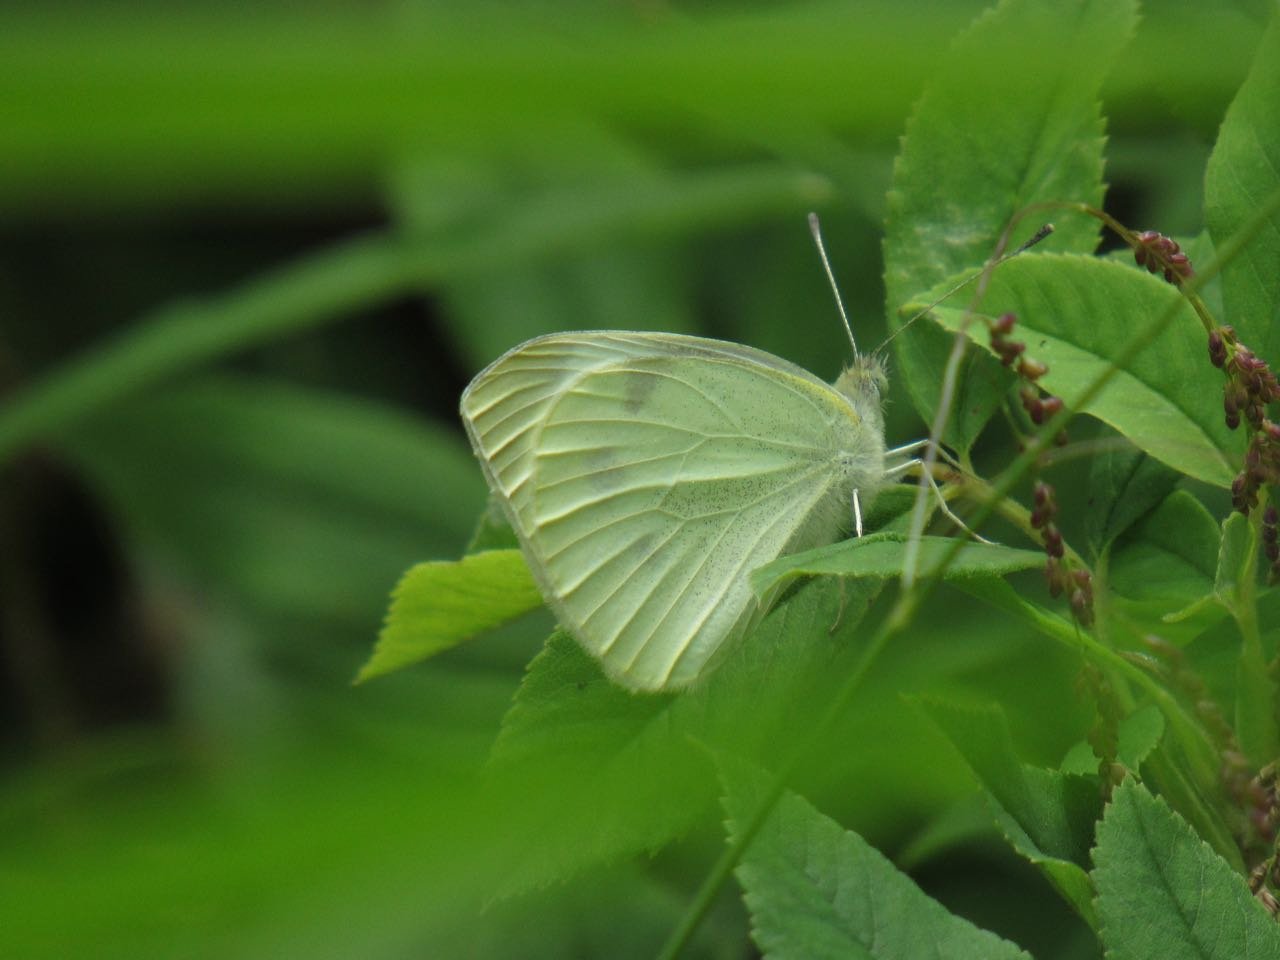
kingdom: Animalia
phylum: Arthropoda
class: Insecta
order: Lepidoptera
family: Pieridae
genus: Pieris
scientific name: Pieris rapae
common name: Cabbage White
